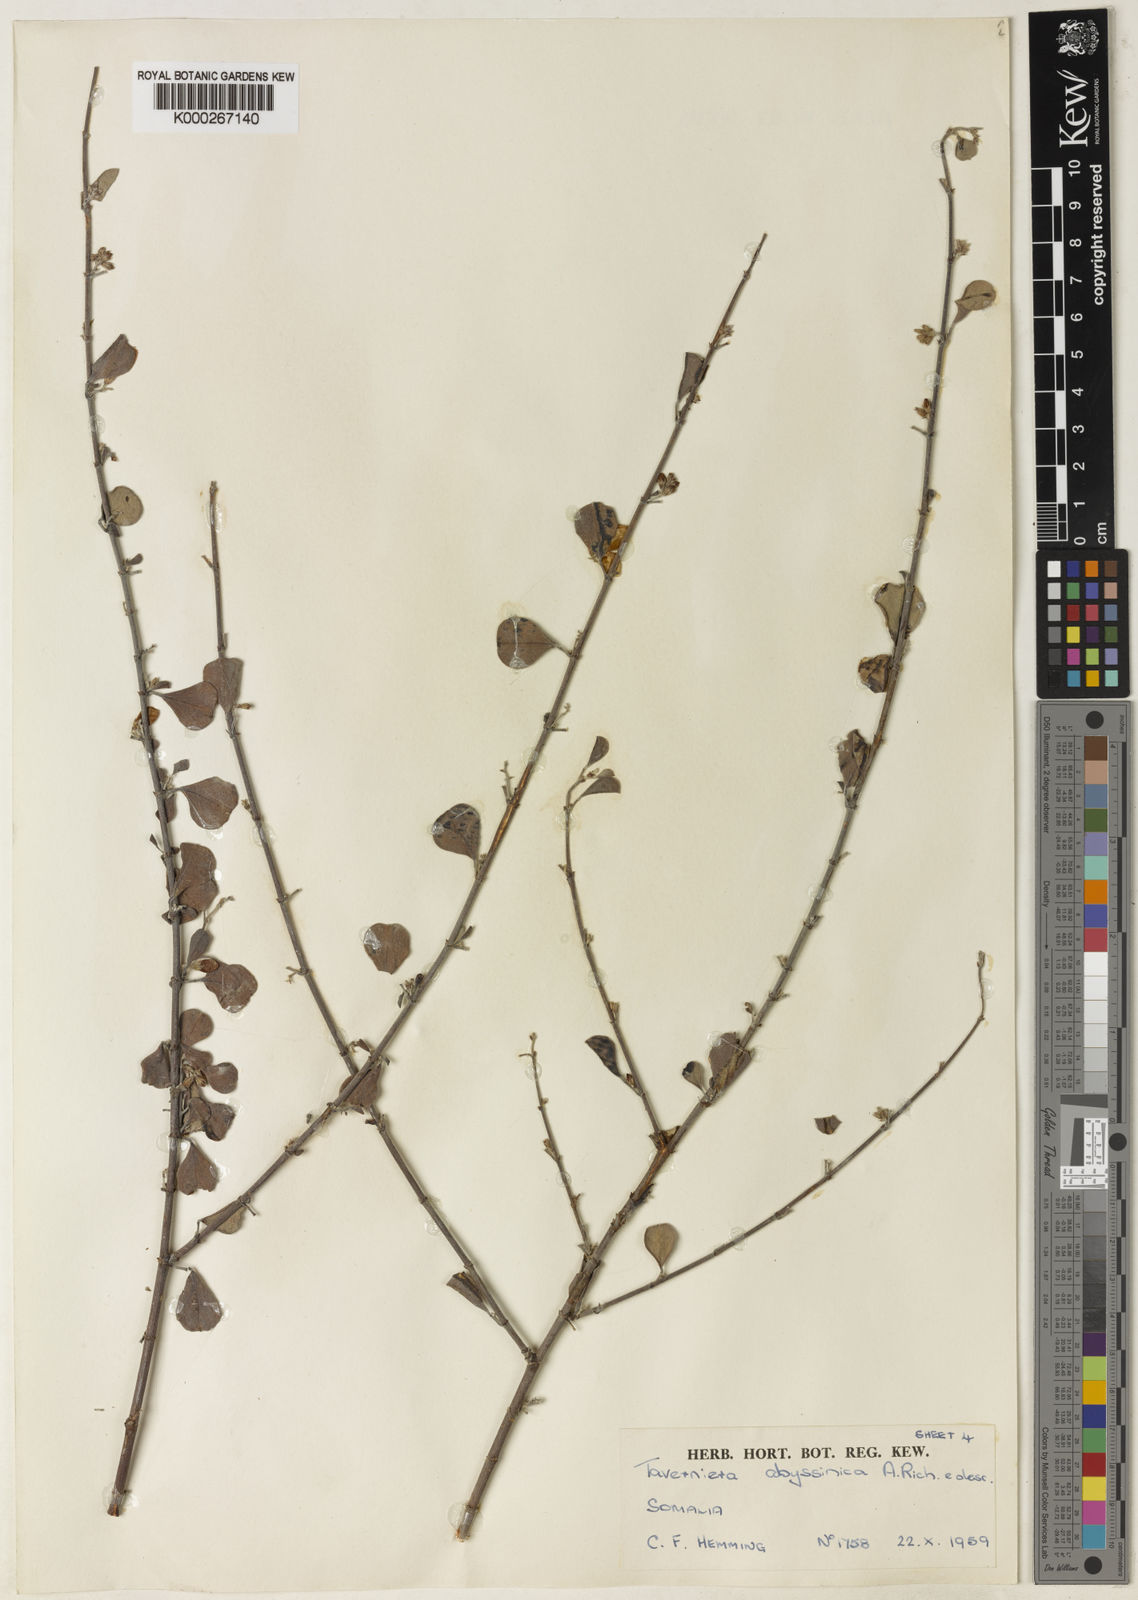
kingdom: Plantae
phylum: Tracheophyta
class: Magnoliopsida
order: Fabales
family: Fabaceae
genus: Taverniera
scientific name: Taverniera multinoda
